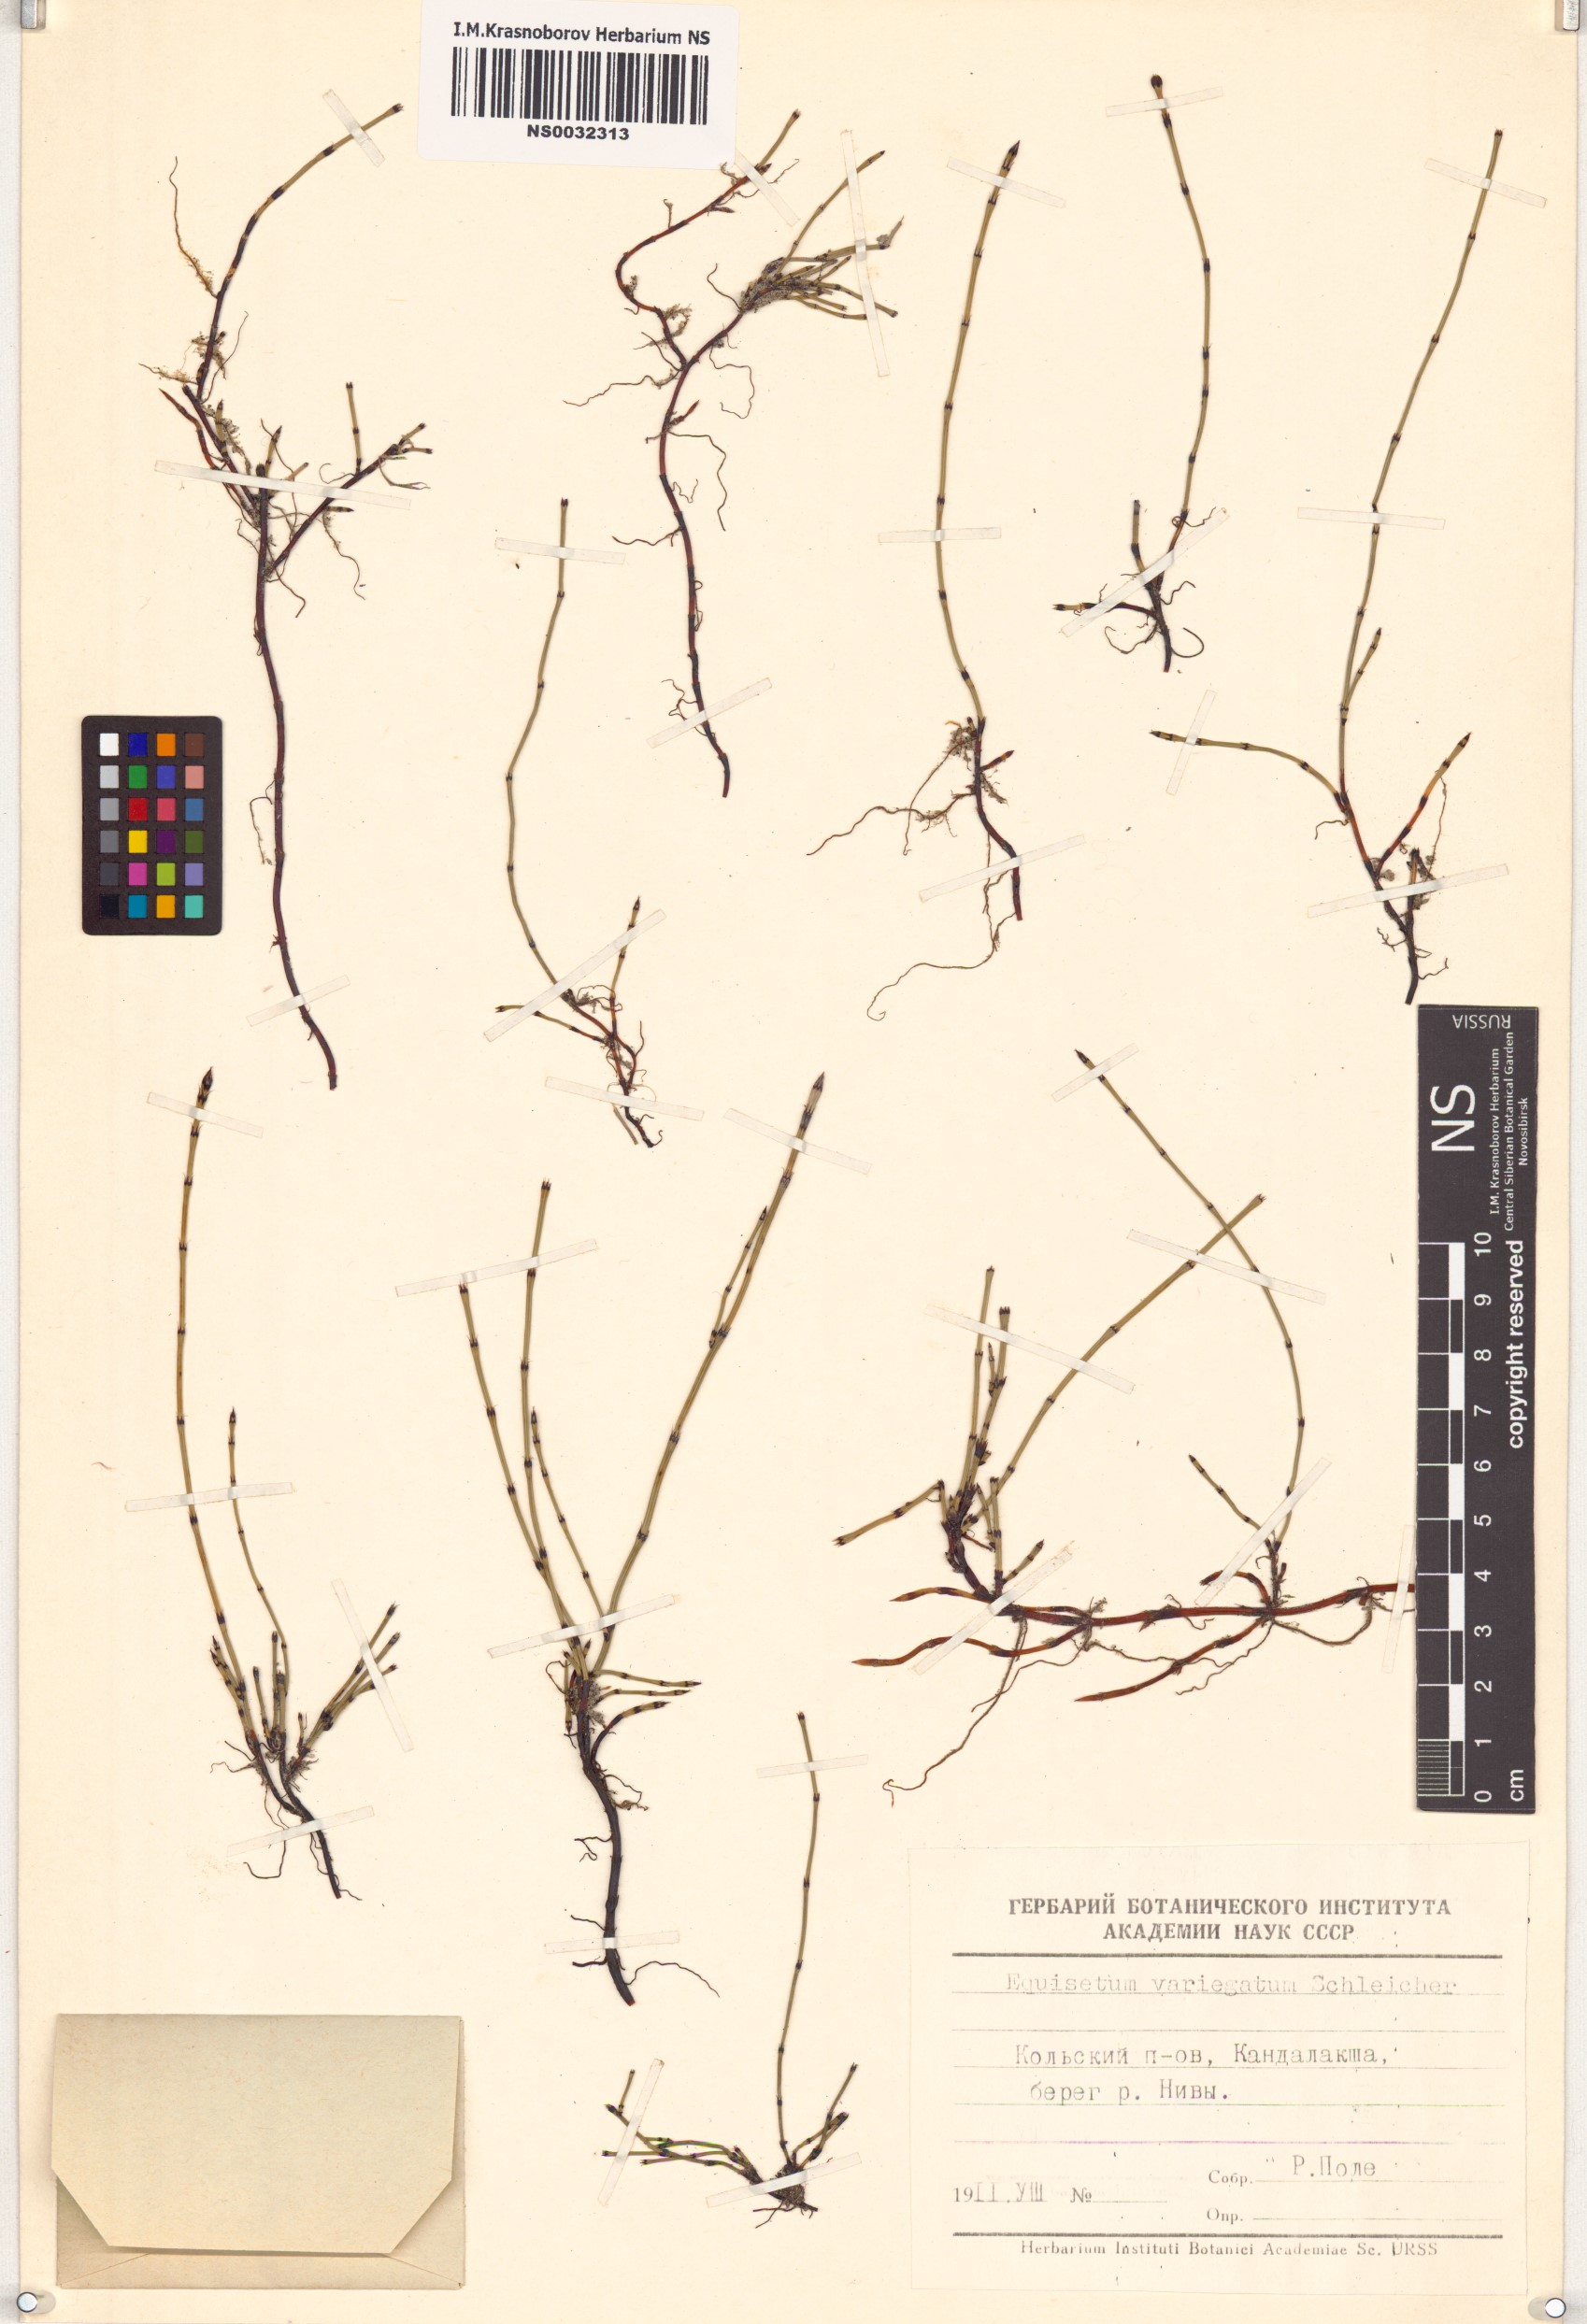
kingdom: Plantae
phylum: Tracheophyta
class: Polypodiopsida
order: Equisetales
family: Equisetaceae
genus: Equisetum
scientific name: Equisetum variegatum
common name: Variegated horsetail
